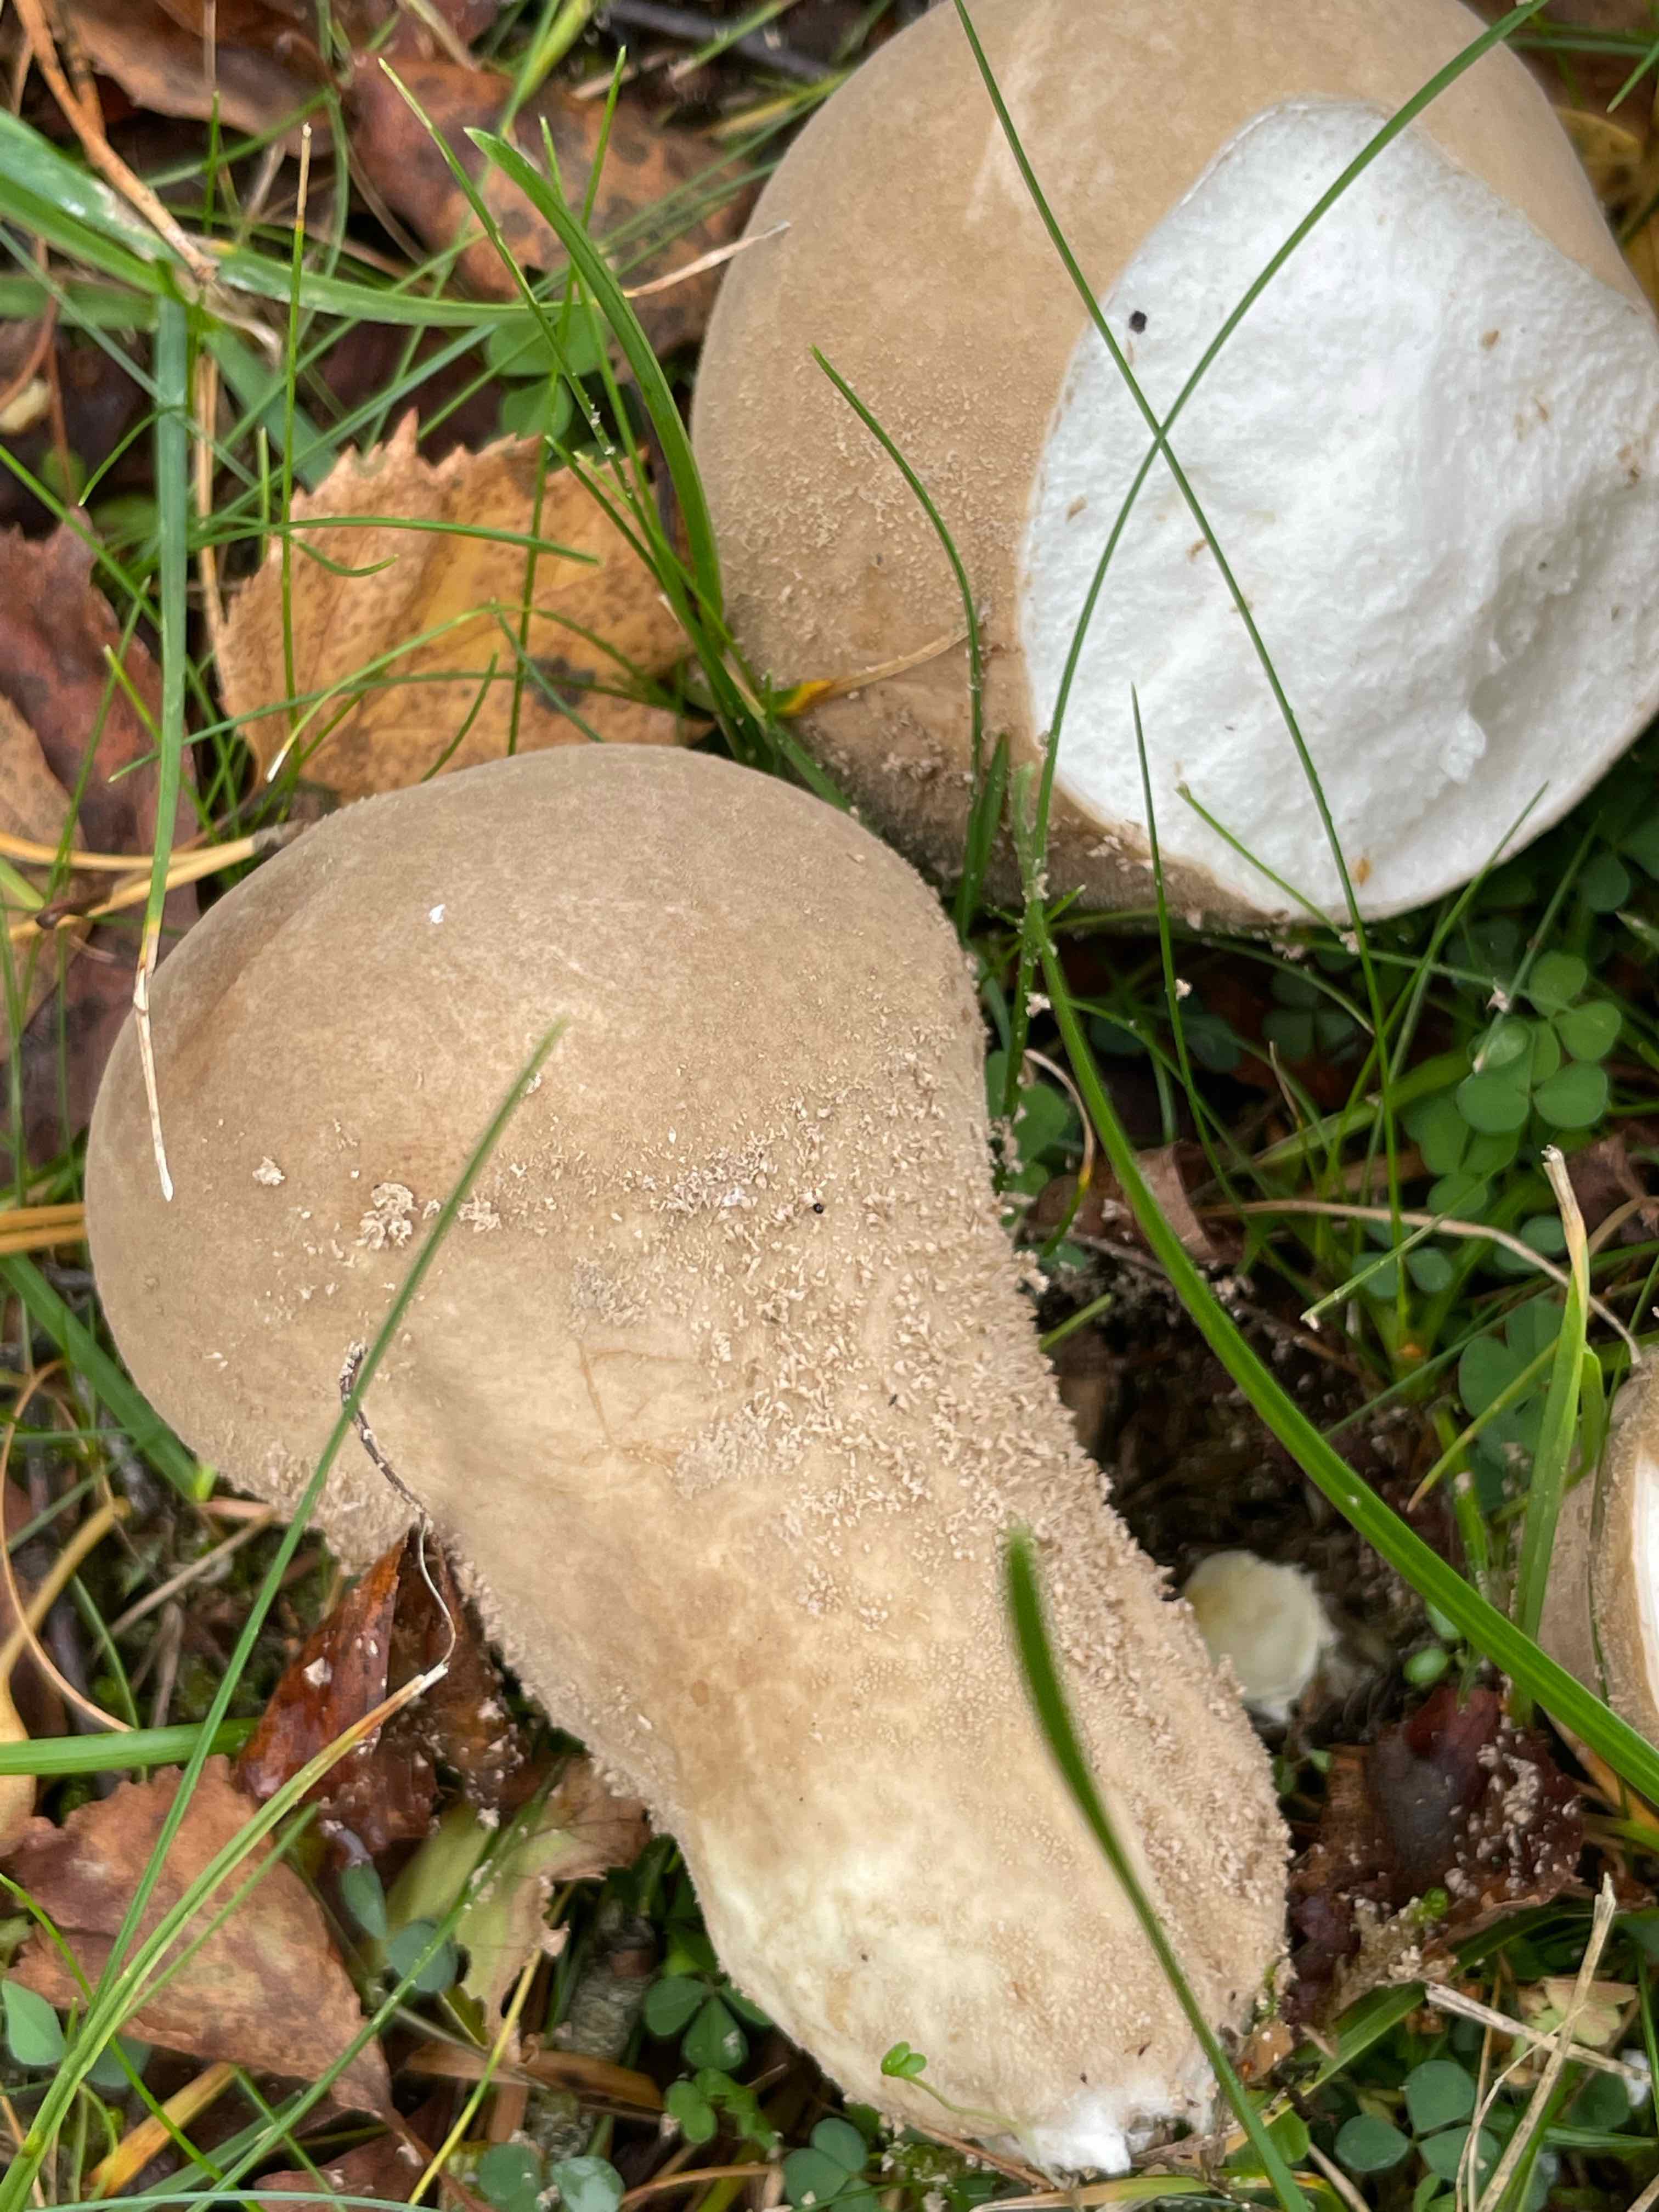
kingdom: Fungi
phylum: Basidiomycota
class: Agaricomycetes
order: Agaricales
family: Agaricaceae
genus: Lycoperdon
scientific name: Lycoperdon
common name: støvbold
